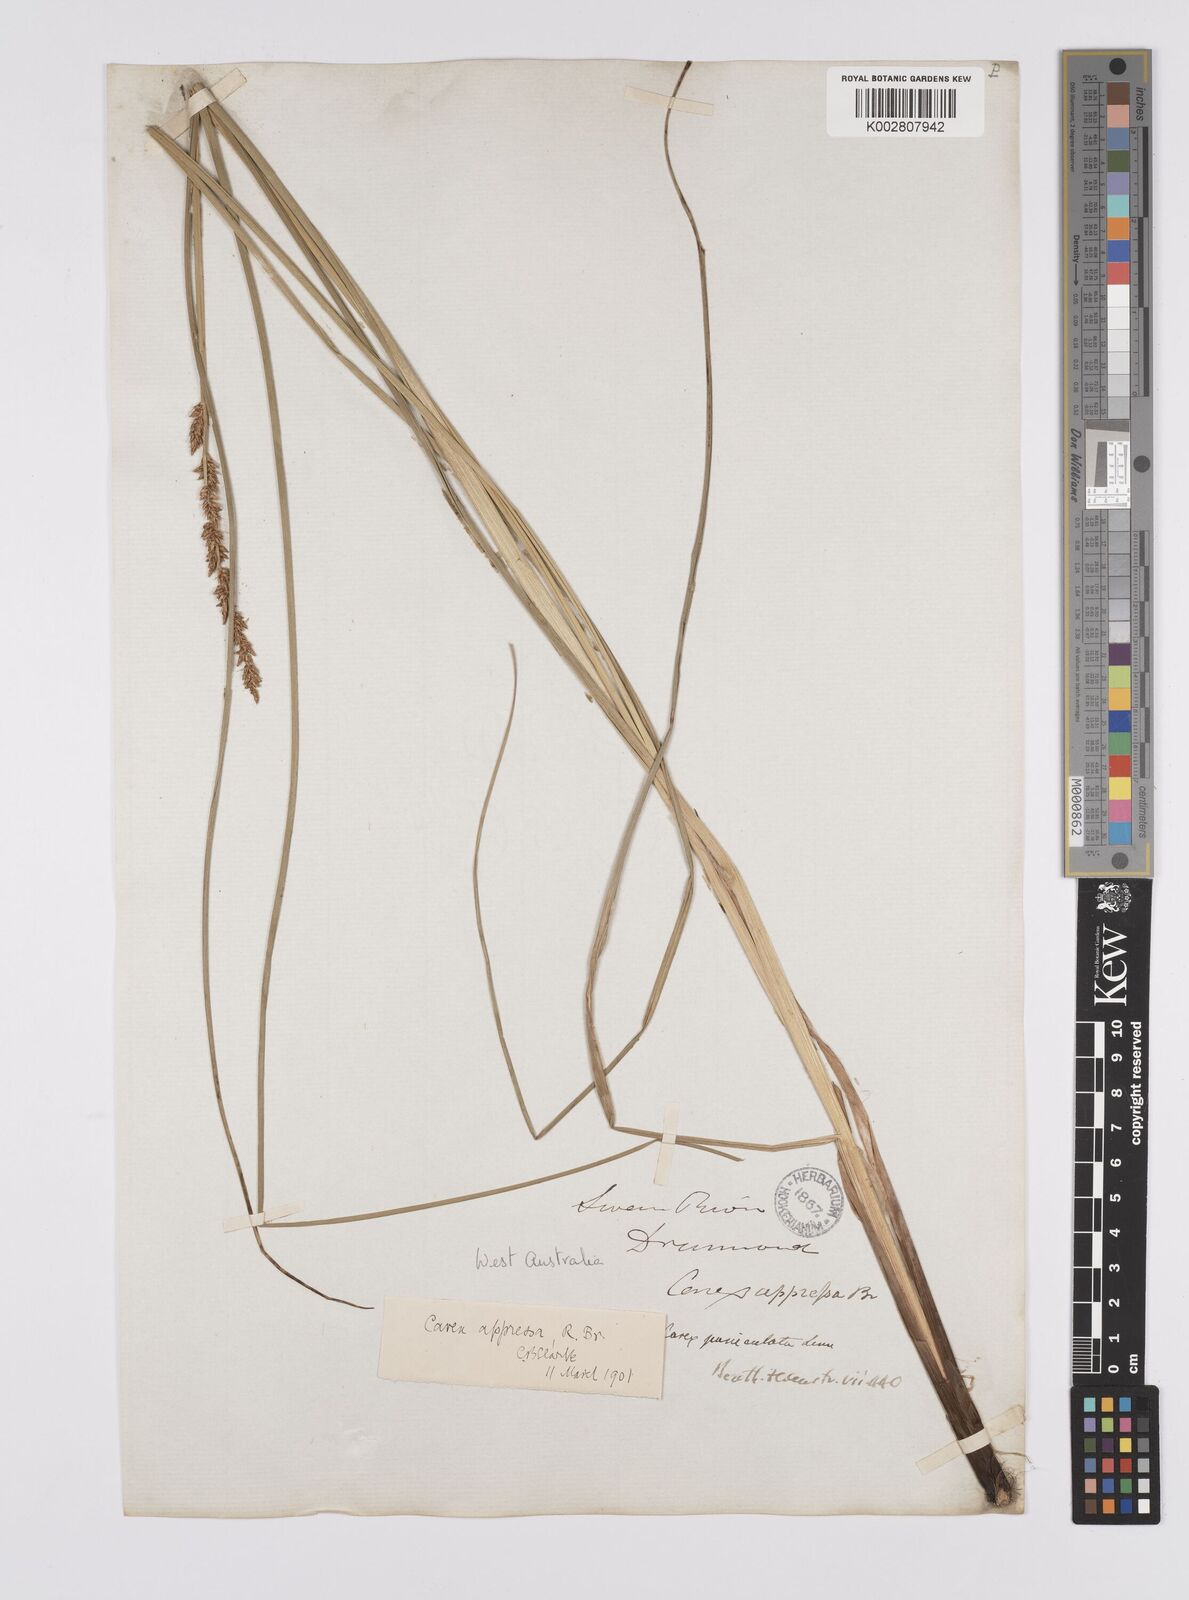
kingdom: Plantae
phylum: Tracheophyta
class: Liliopsida
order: Poales
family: Cyperaceae
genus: Carex
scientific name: Carex tereticaulis
